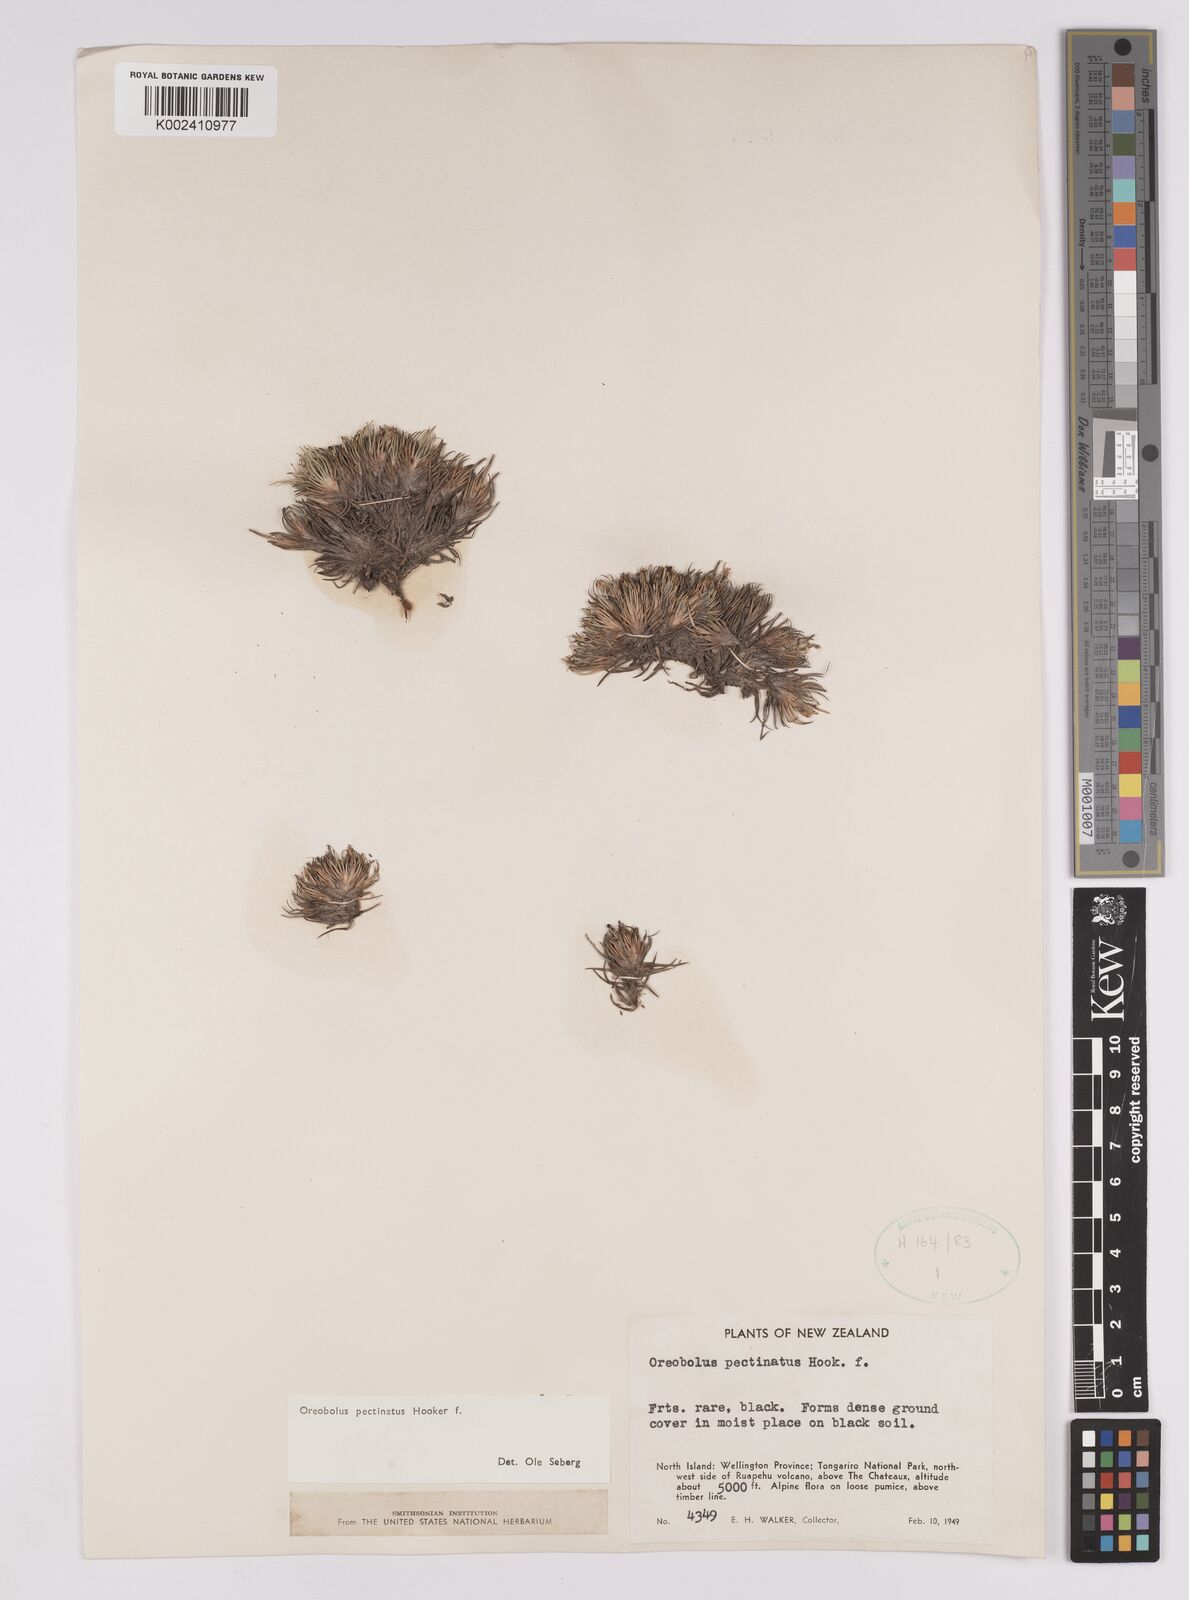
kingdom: Plantae
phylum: Tracheophyta
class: Liliopsida
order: Poales
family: Cyperaceae
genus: Oreobolus
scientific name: Oreobolus pectinatus
